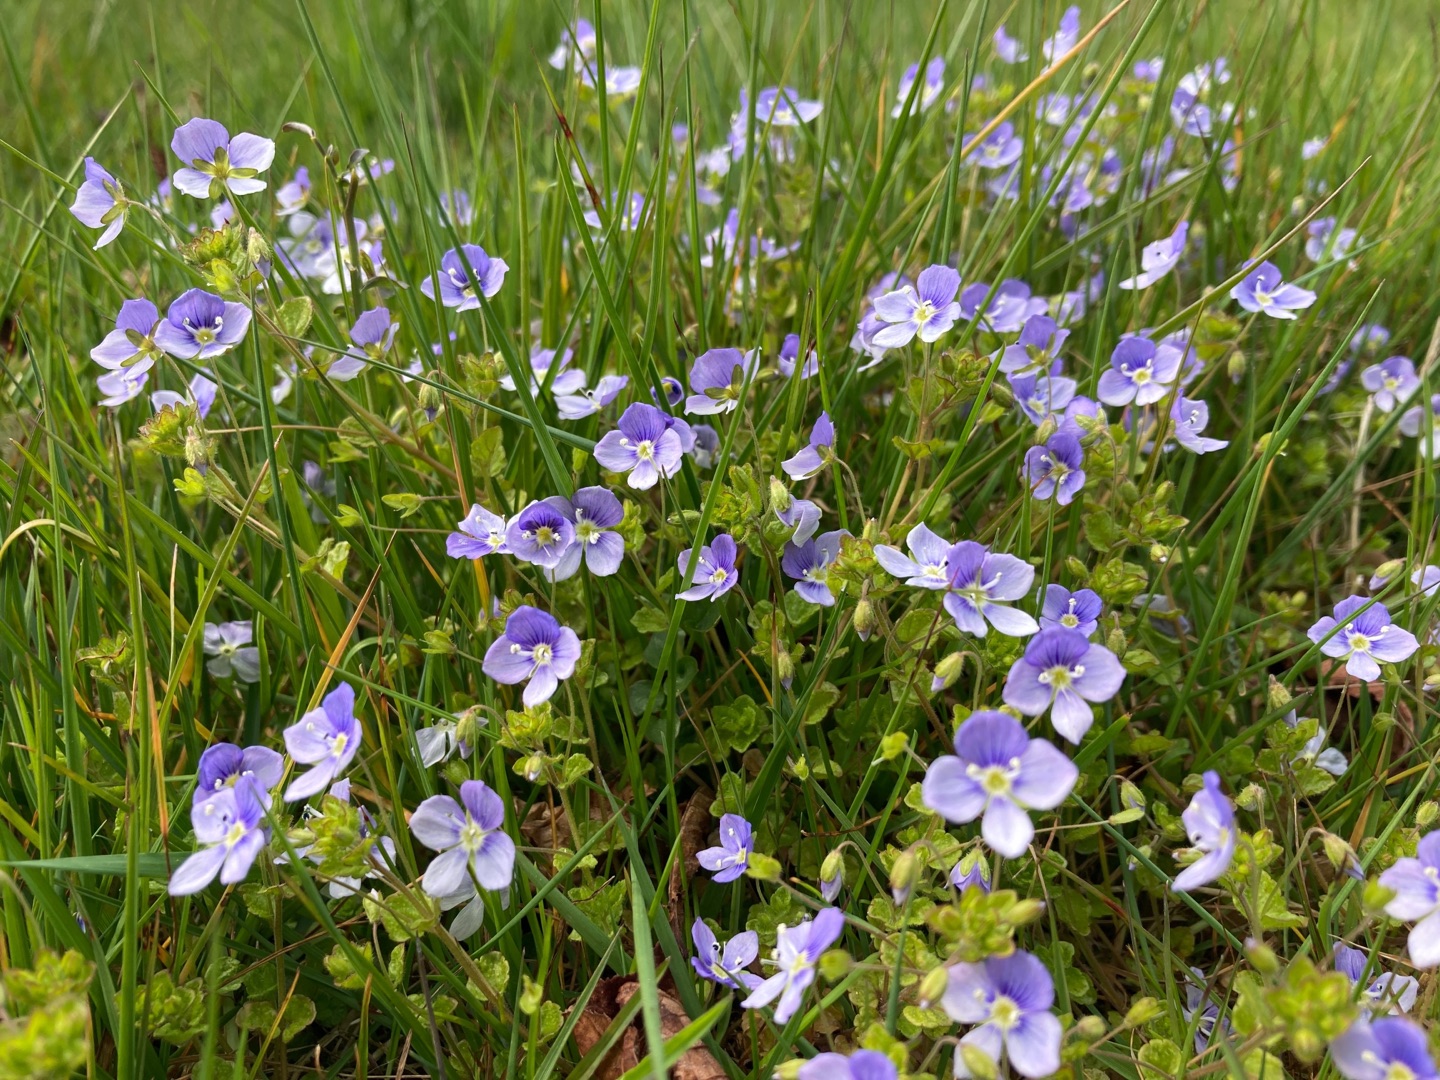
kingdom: Plantae
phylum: Tracheophyta
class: Magnoliopsida
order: Lamiales
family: Plantaginaceae
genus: Veronica
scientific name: Veronica filiformis
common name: Tråd-ærenpris
